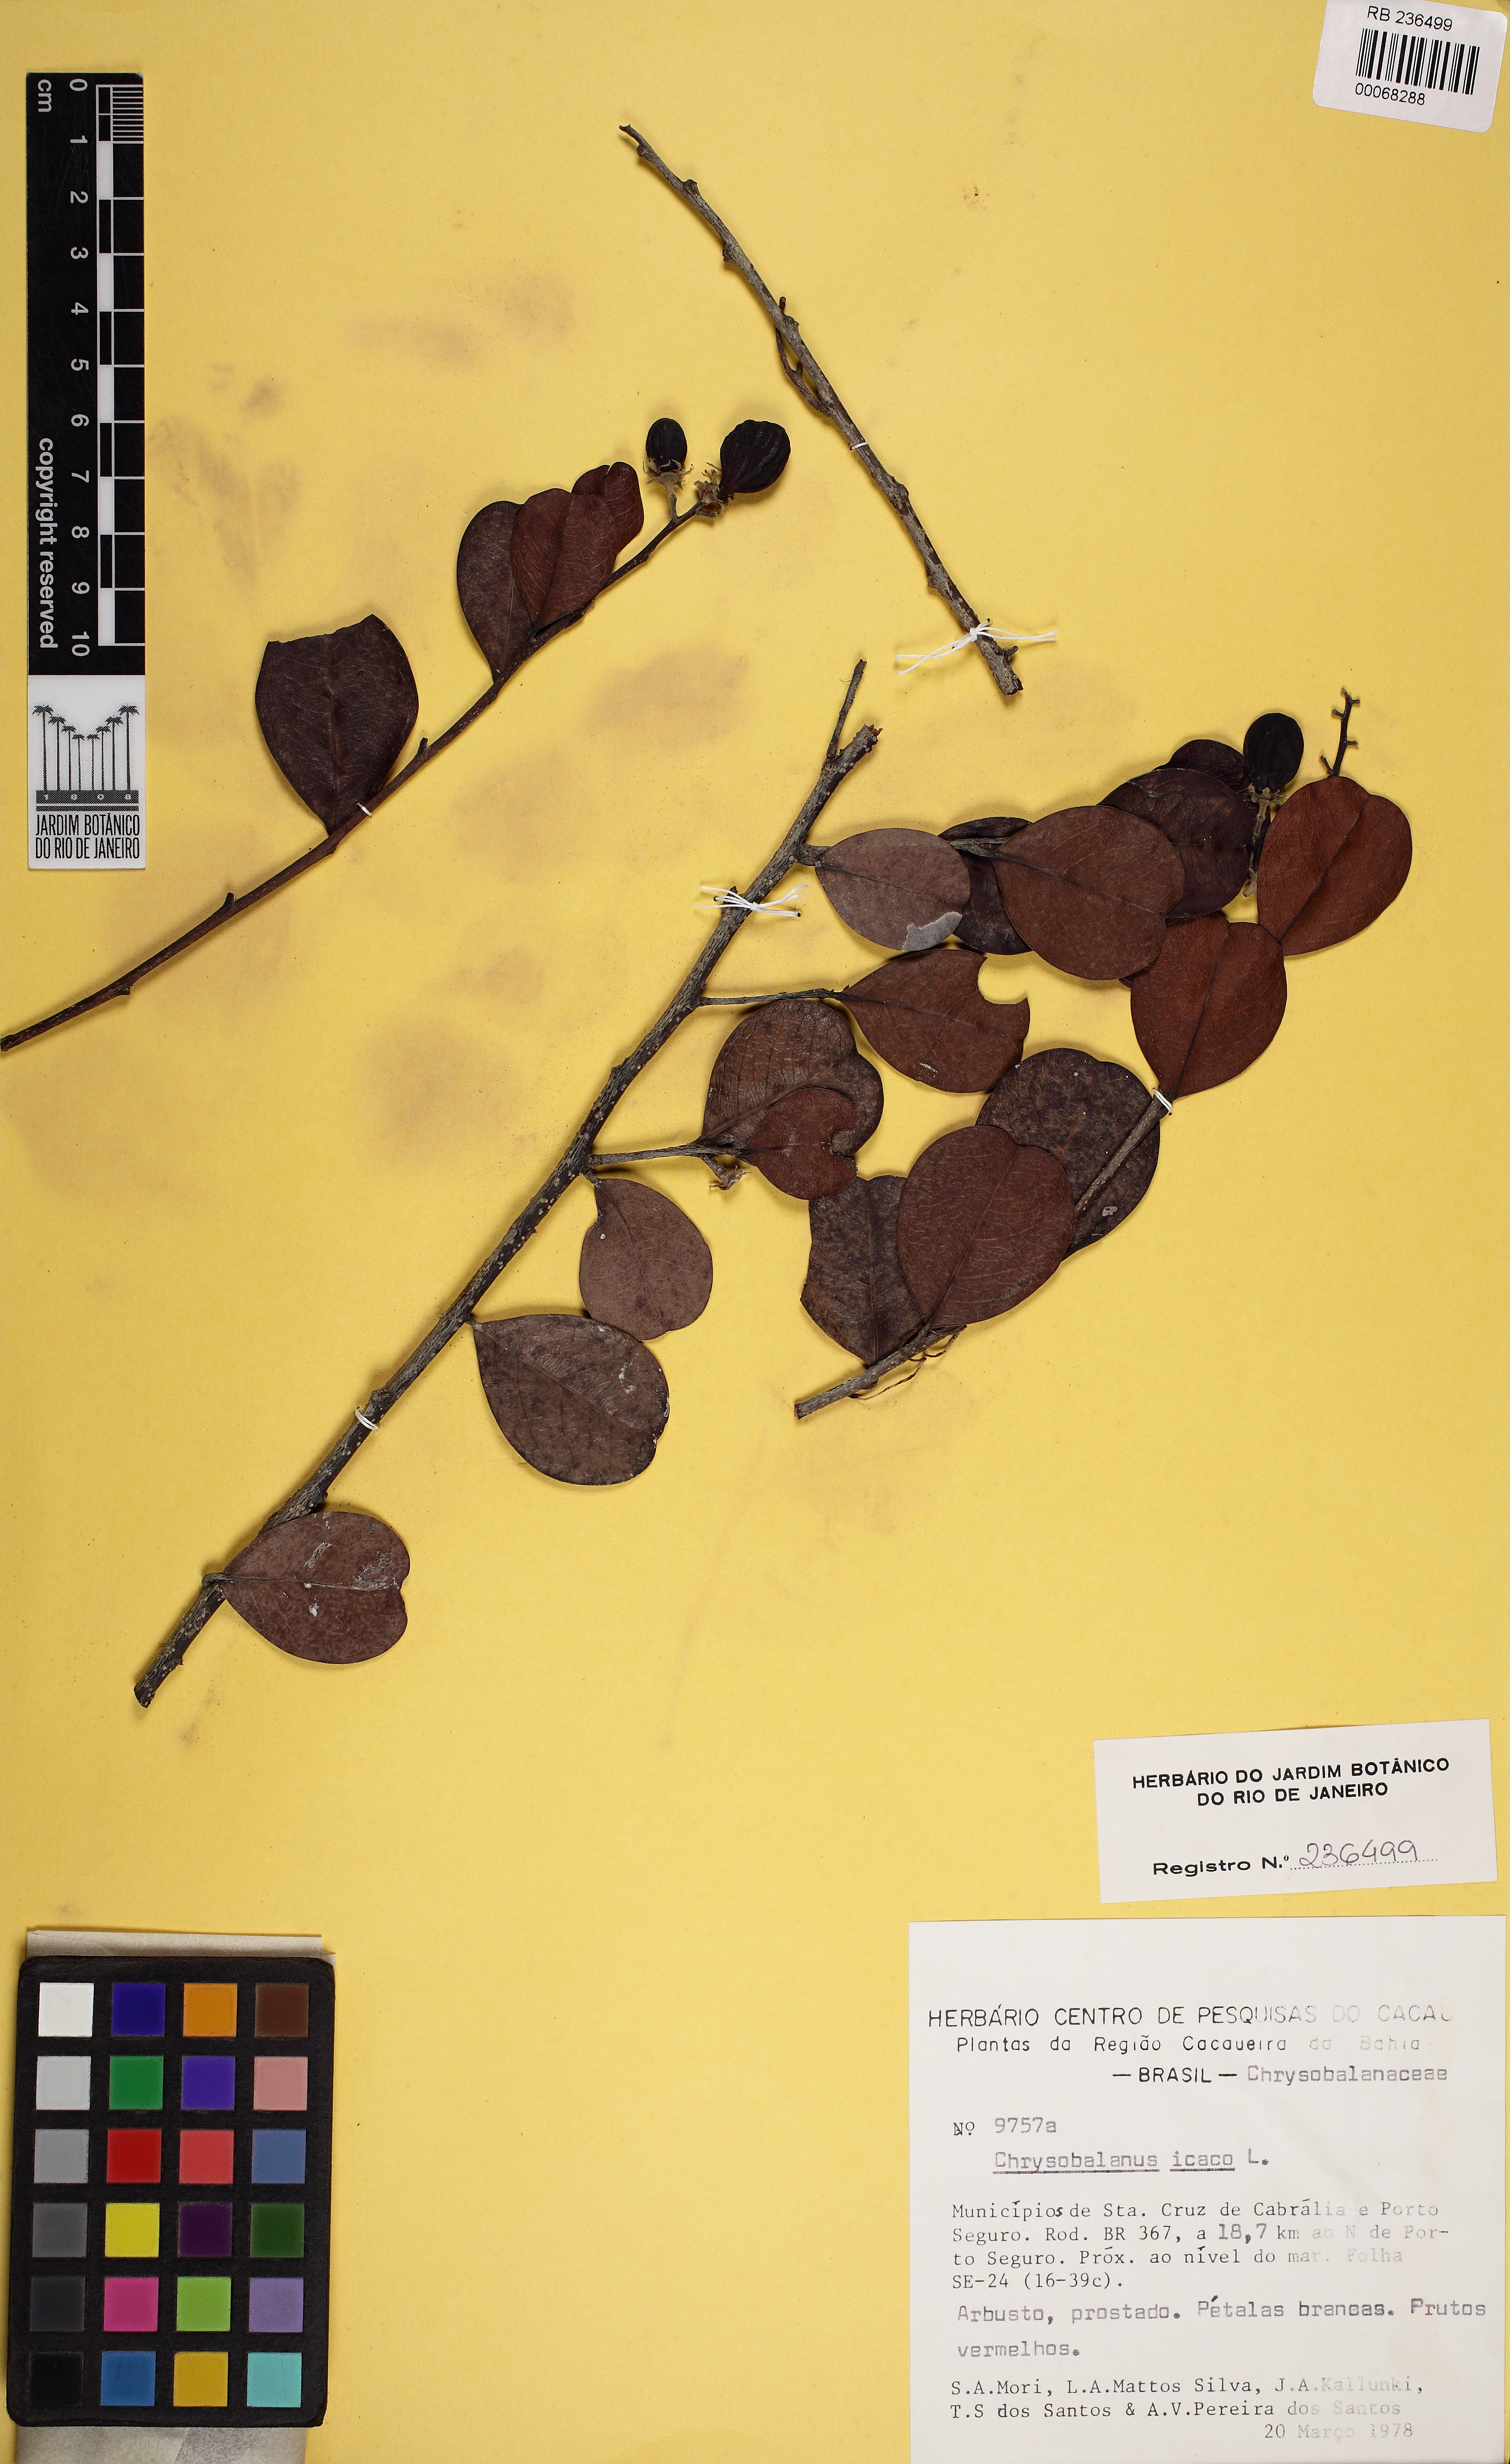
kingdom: Plantae
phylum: Tracheophyta
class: Magnoliopsida
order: Malpighiales
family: Chrysobalanaceae
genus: Chrysobalanus
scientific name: Chrysobalanus icaco
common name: Coco plum
